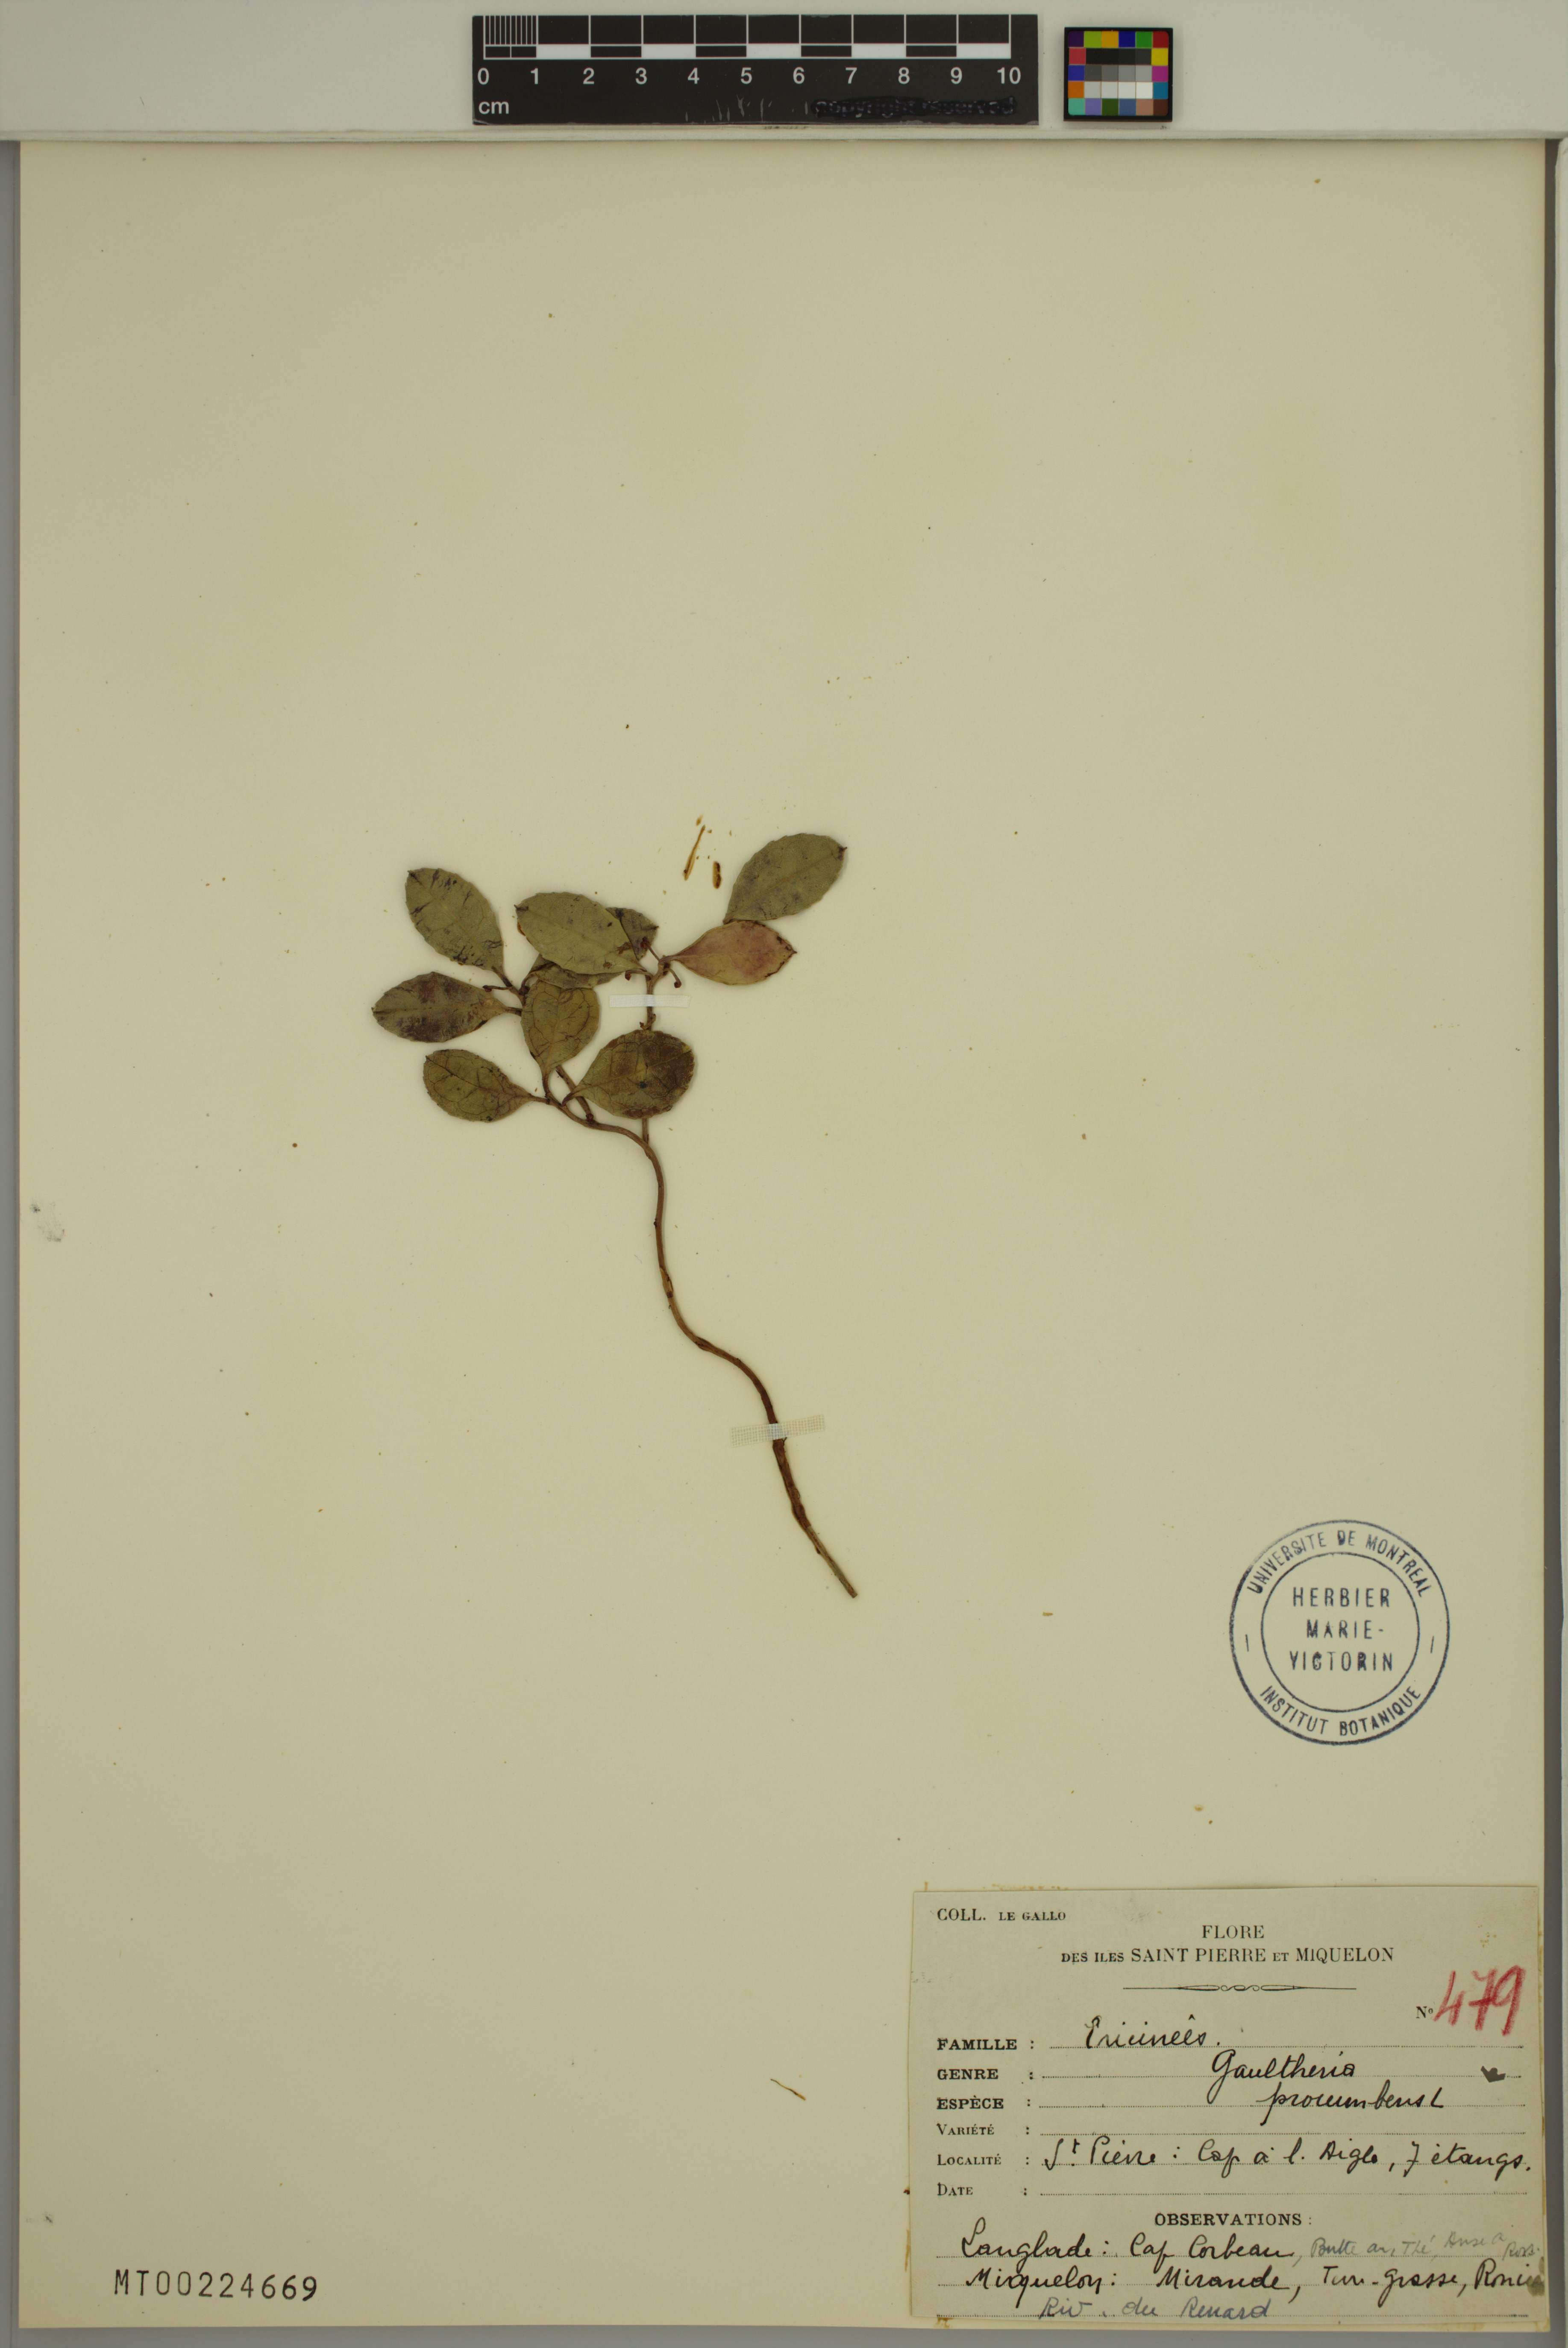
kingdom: Plantae
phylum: Tracheophyta
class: Magnoliopsida
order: Ericales
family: Ericaceae
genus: Gaultheria
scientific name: Gaultheria procumbens
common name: Checkerberry
